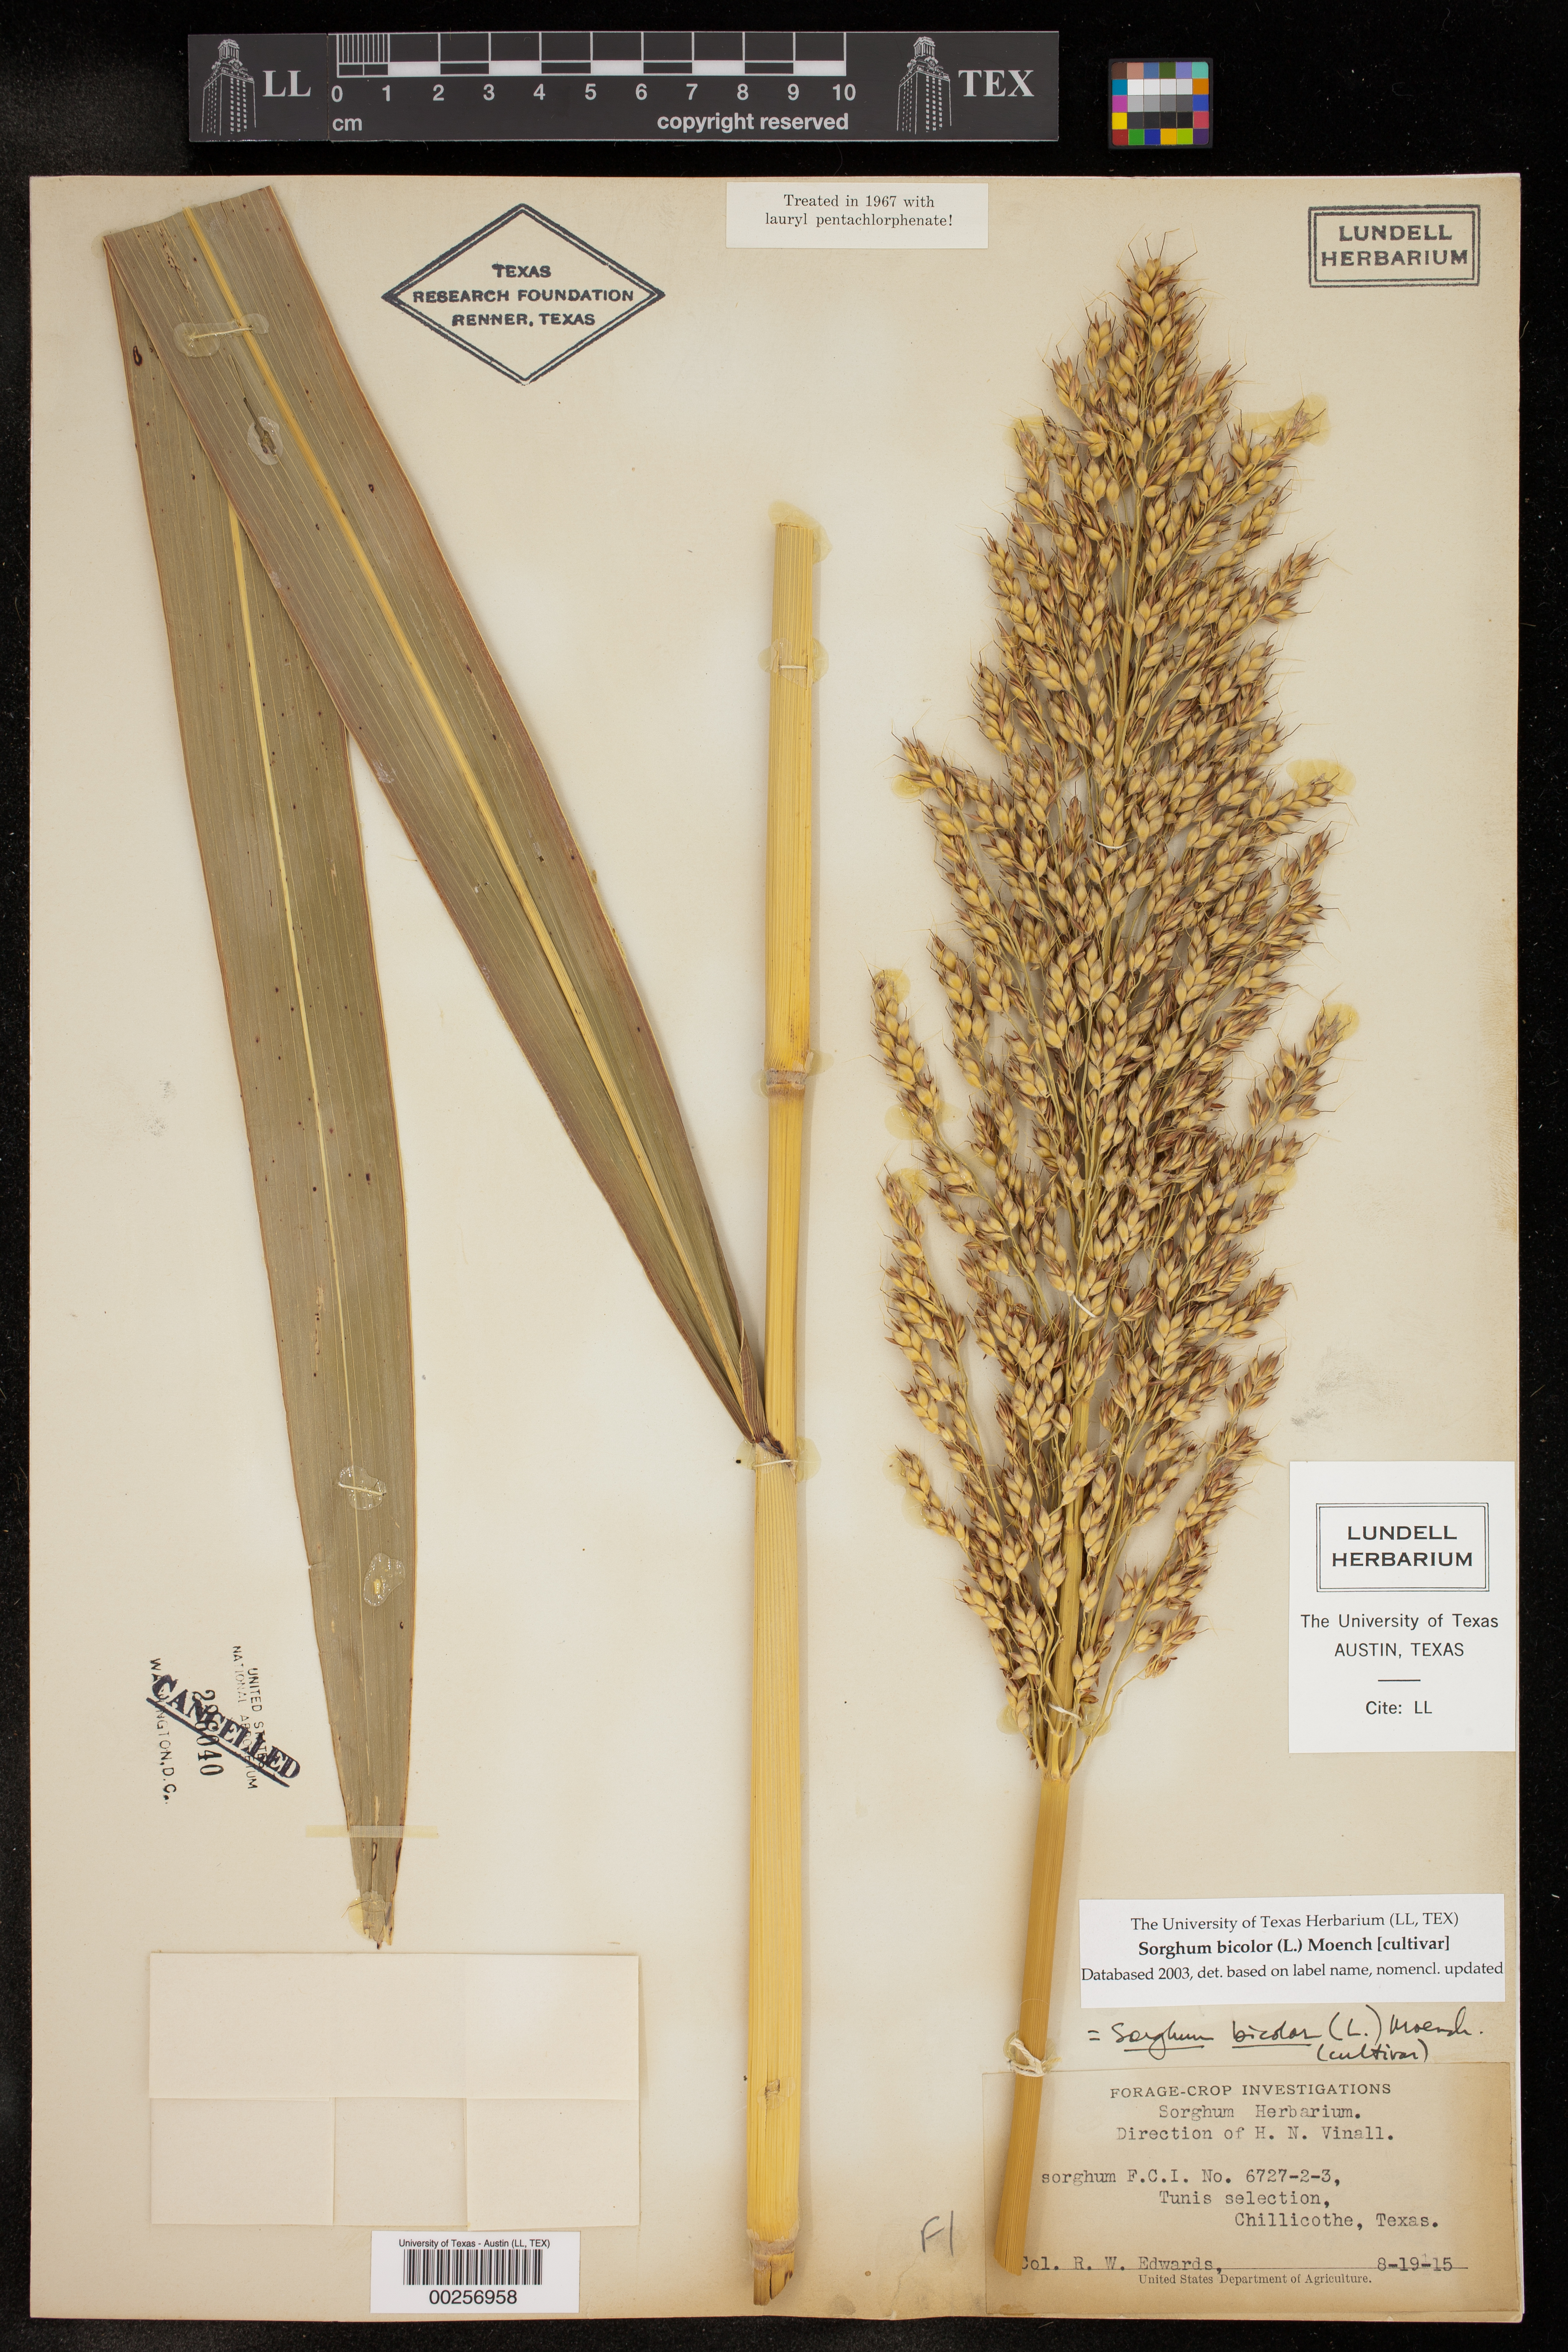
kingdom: Plantae
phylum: Tracheophyta
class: Liliopsida
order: Poales
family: Poaceae
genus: Sorghum
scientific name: Sorghum bicolor
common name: Sorghum
